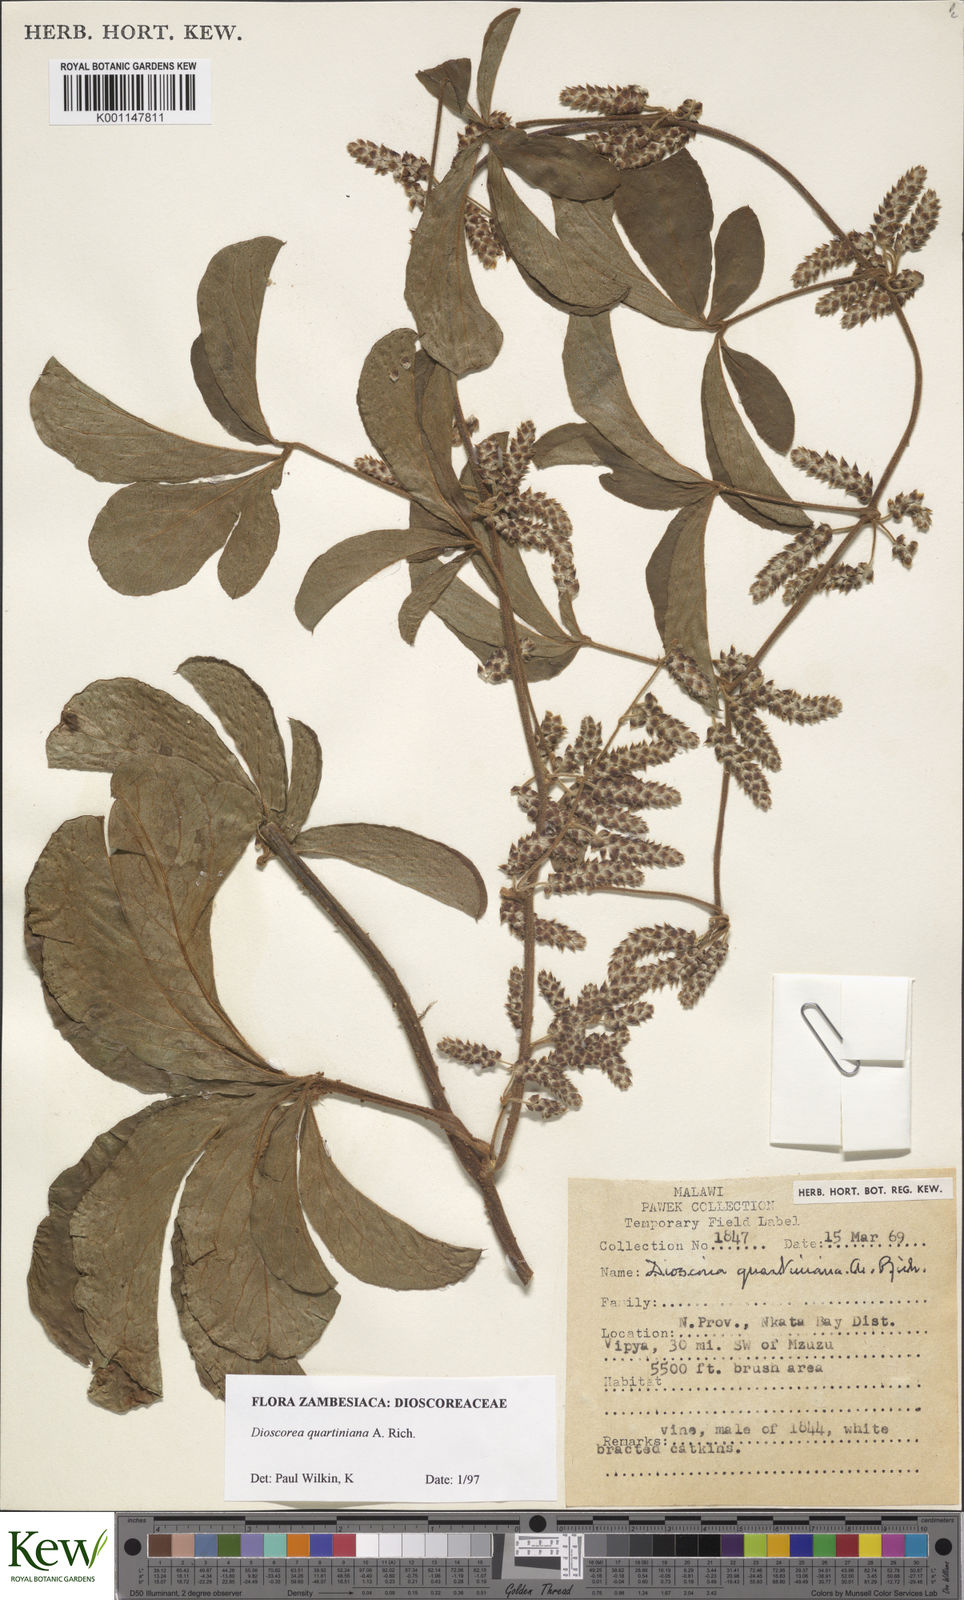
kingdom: Plantae
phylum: Tracheophyta
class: Liliopsida
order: Dioscoreales
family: Dioscoreaceae
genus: Dioscorea
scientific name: Dioscorea quartiniana
